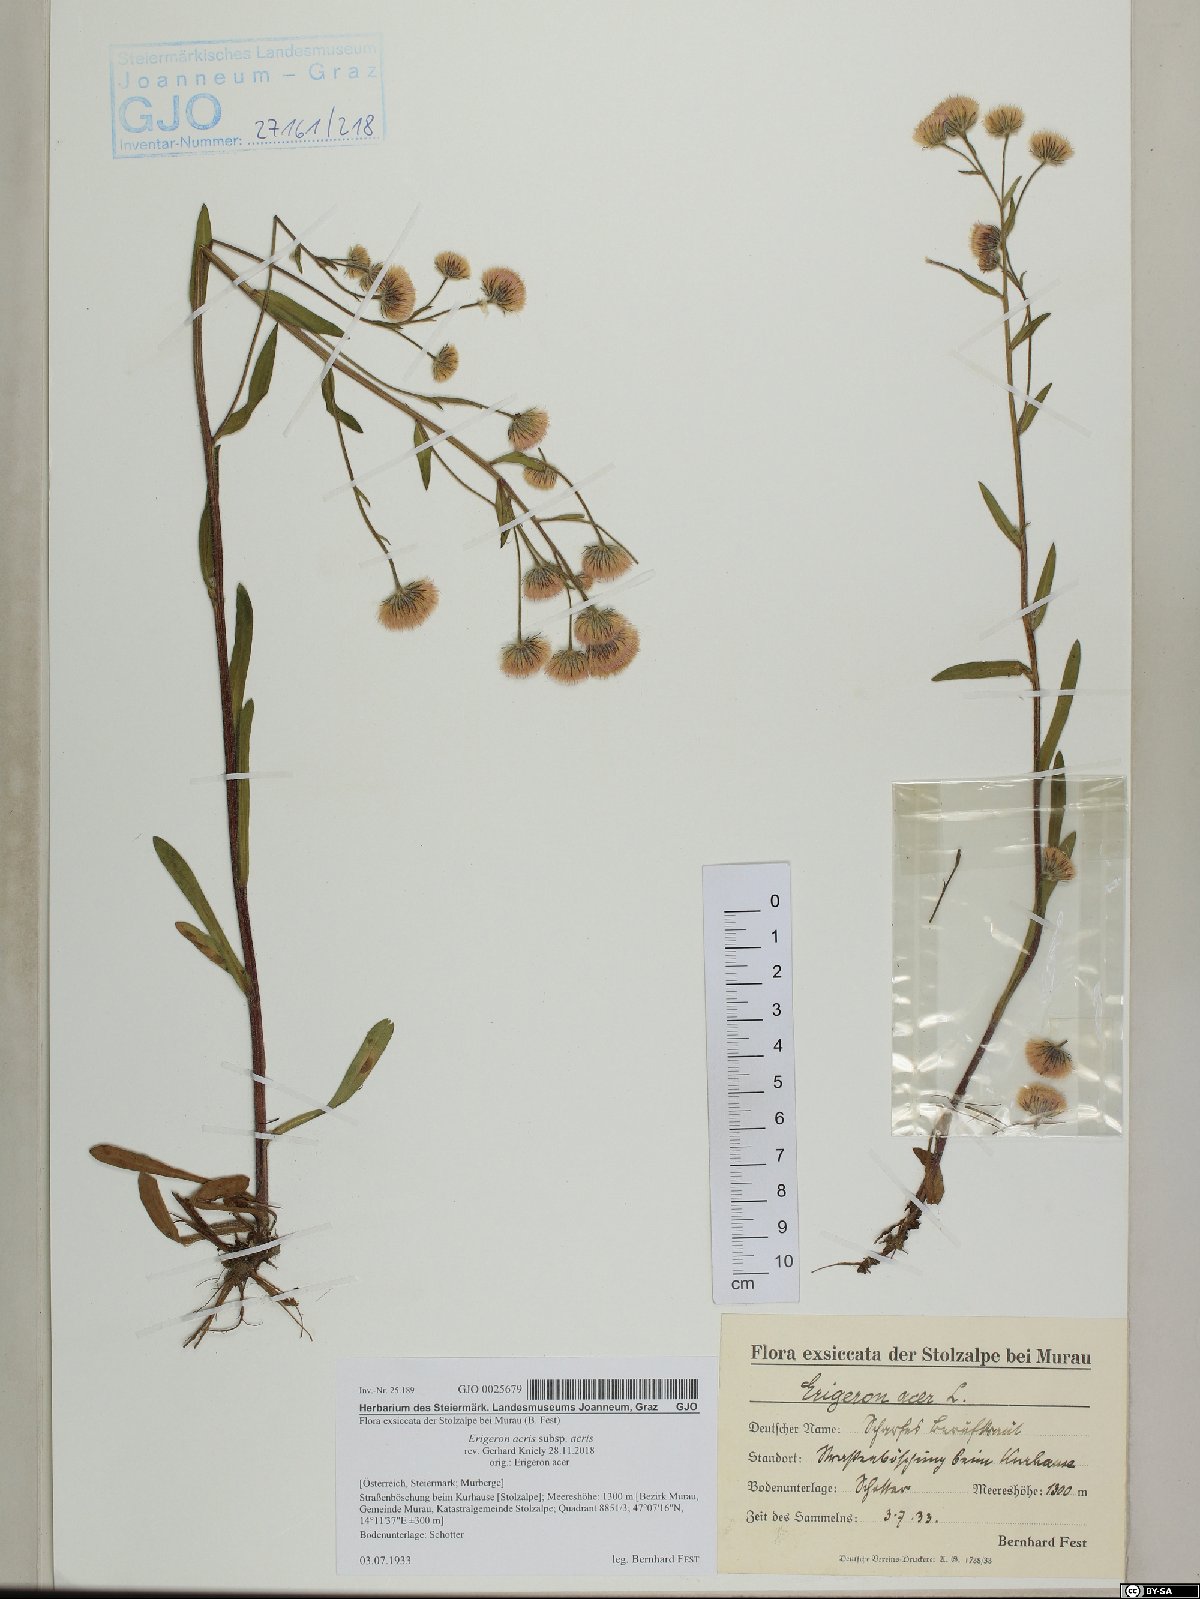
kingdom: Plantae
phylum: Tracheophyta
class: Magnoliopsida
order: Asterales
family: Asteraceae
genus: Erigeron
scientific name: Erigeron acris
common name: Blue fleabane
